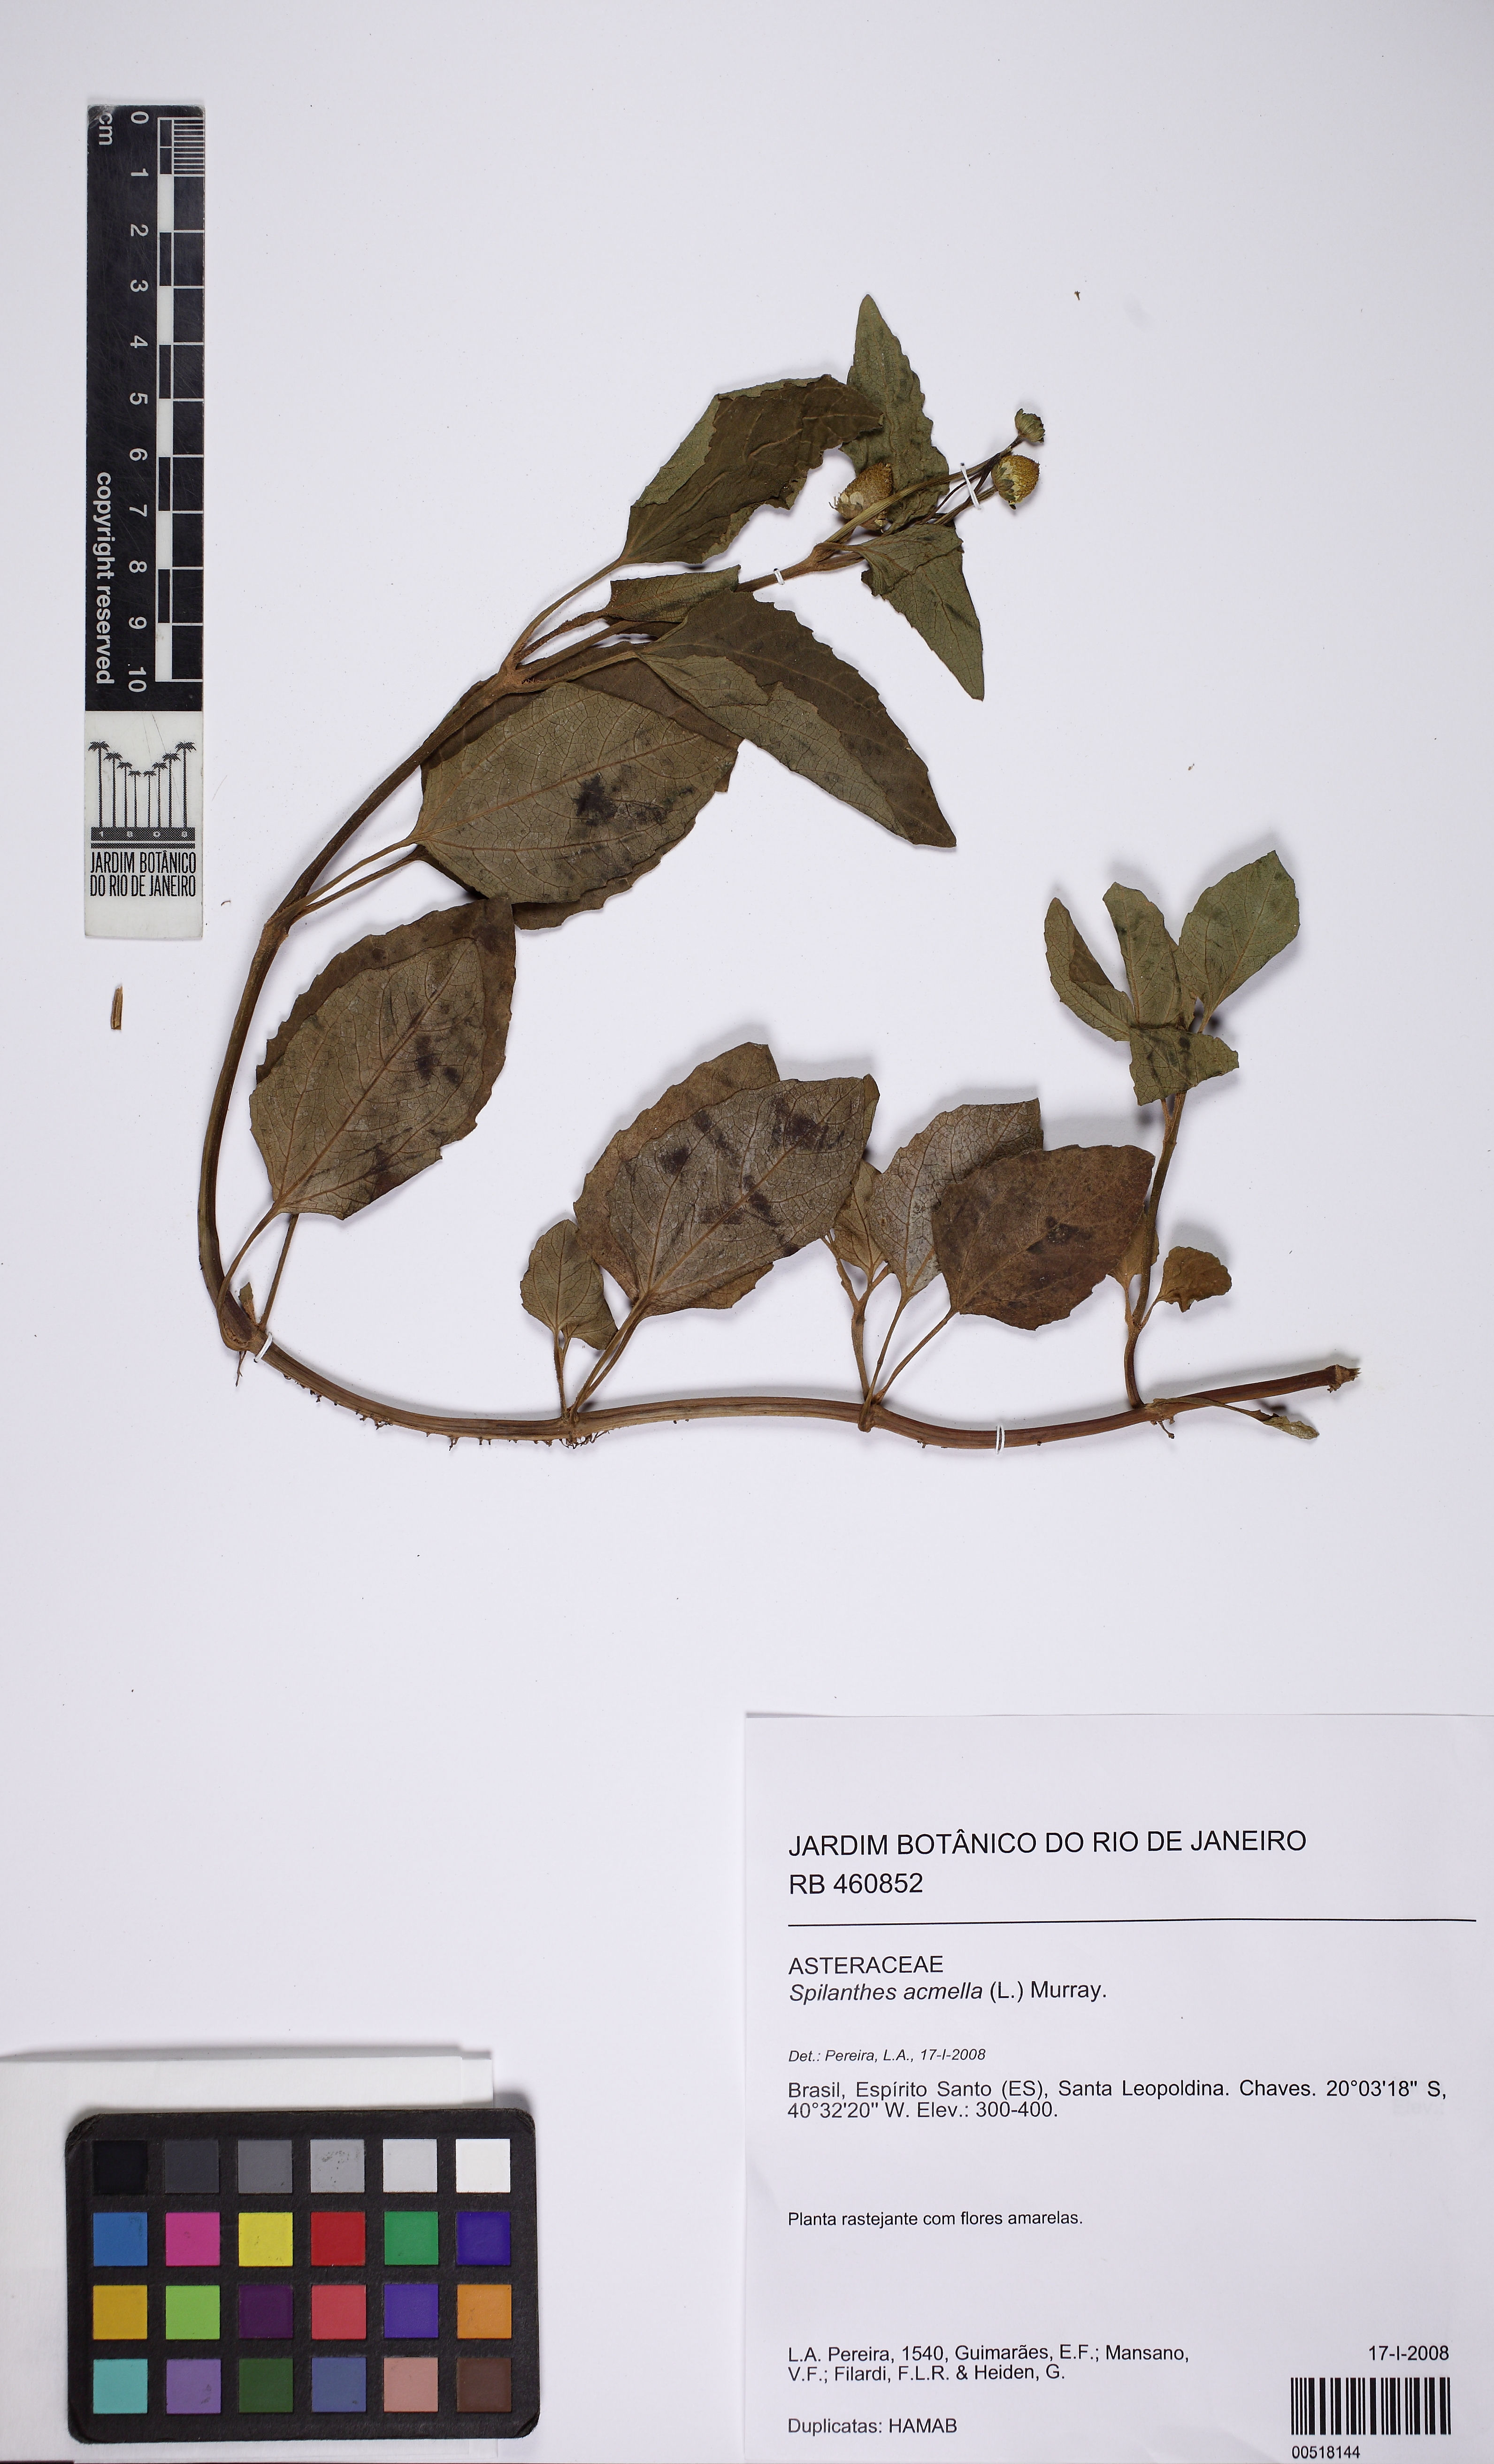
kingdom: Plantae
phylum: Tracheophyta
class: Magnoliopsida
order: Asterales
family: Asteraceae
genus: Blainvillea
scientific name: Blainvillea acmella
